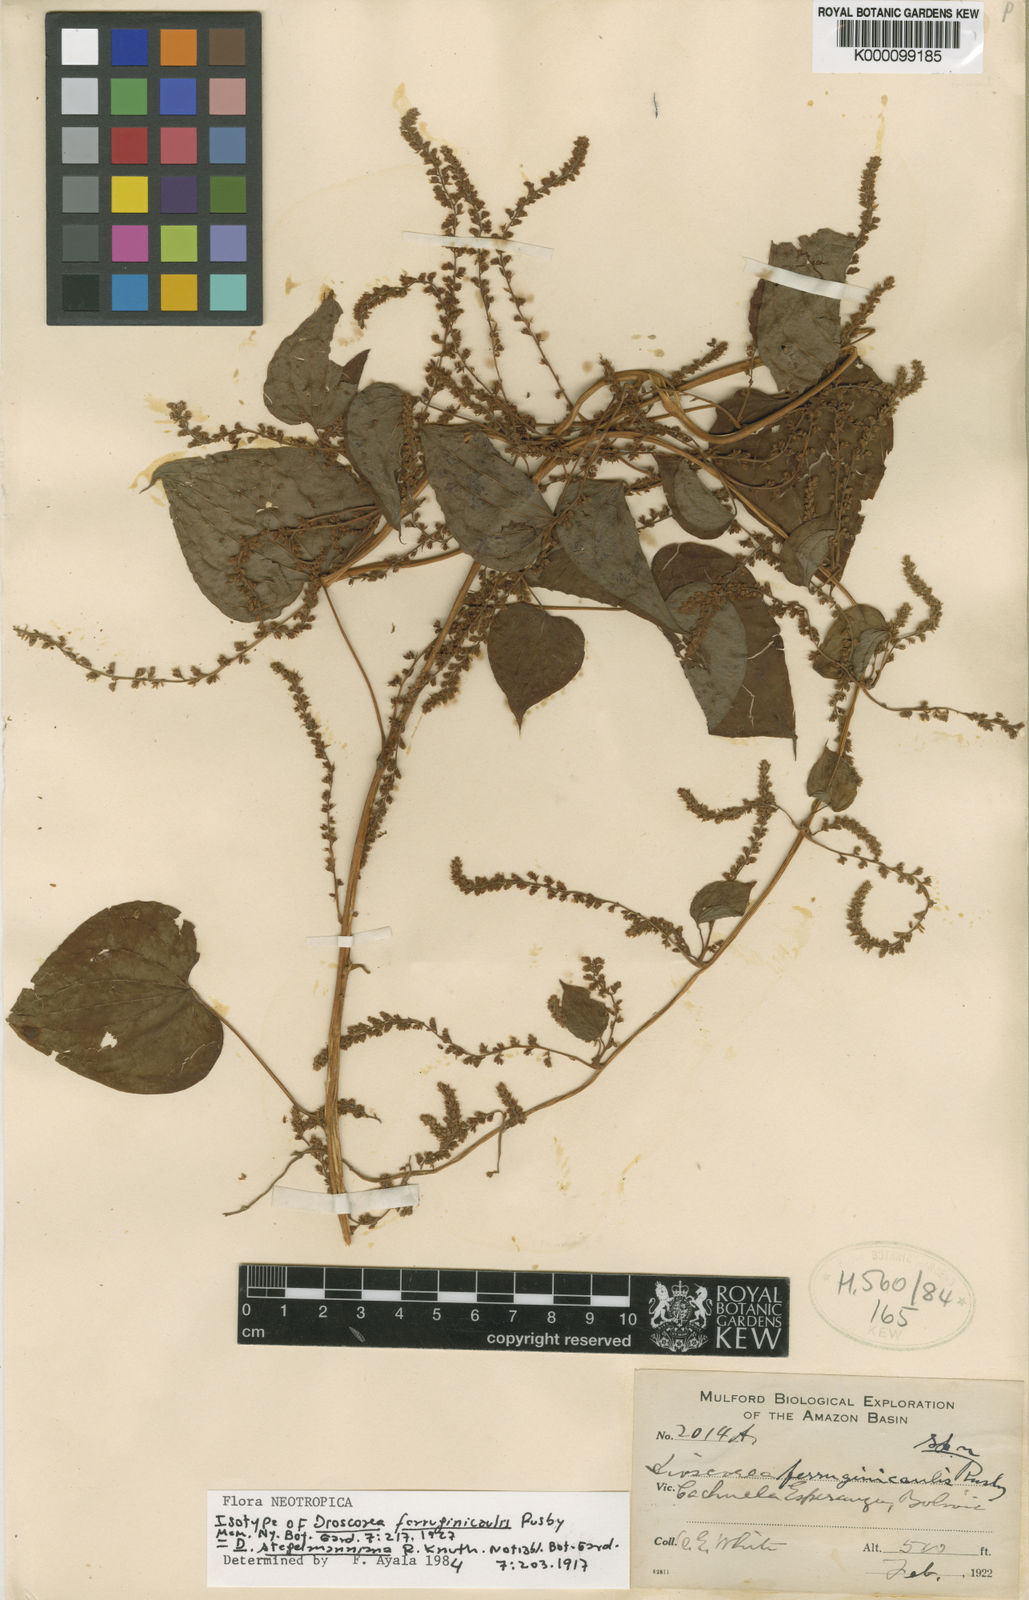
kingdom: Plantae
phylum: Tracheophyta
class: Liliopsida
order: Dioscoreales
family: Dioscoreaceae
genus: Dioscorea
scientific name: Dioscorea stegelmanniana
